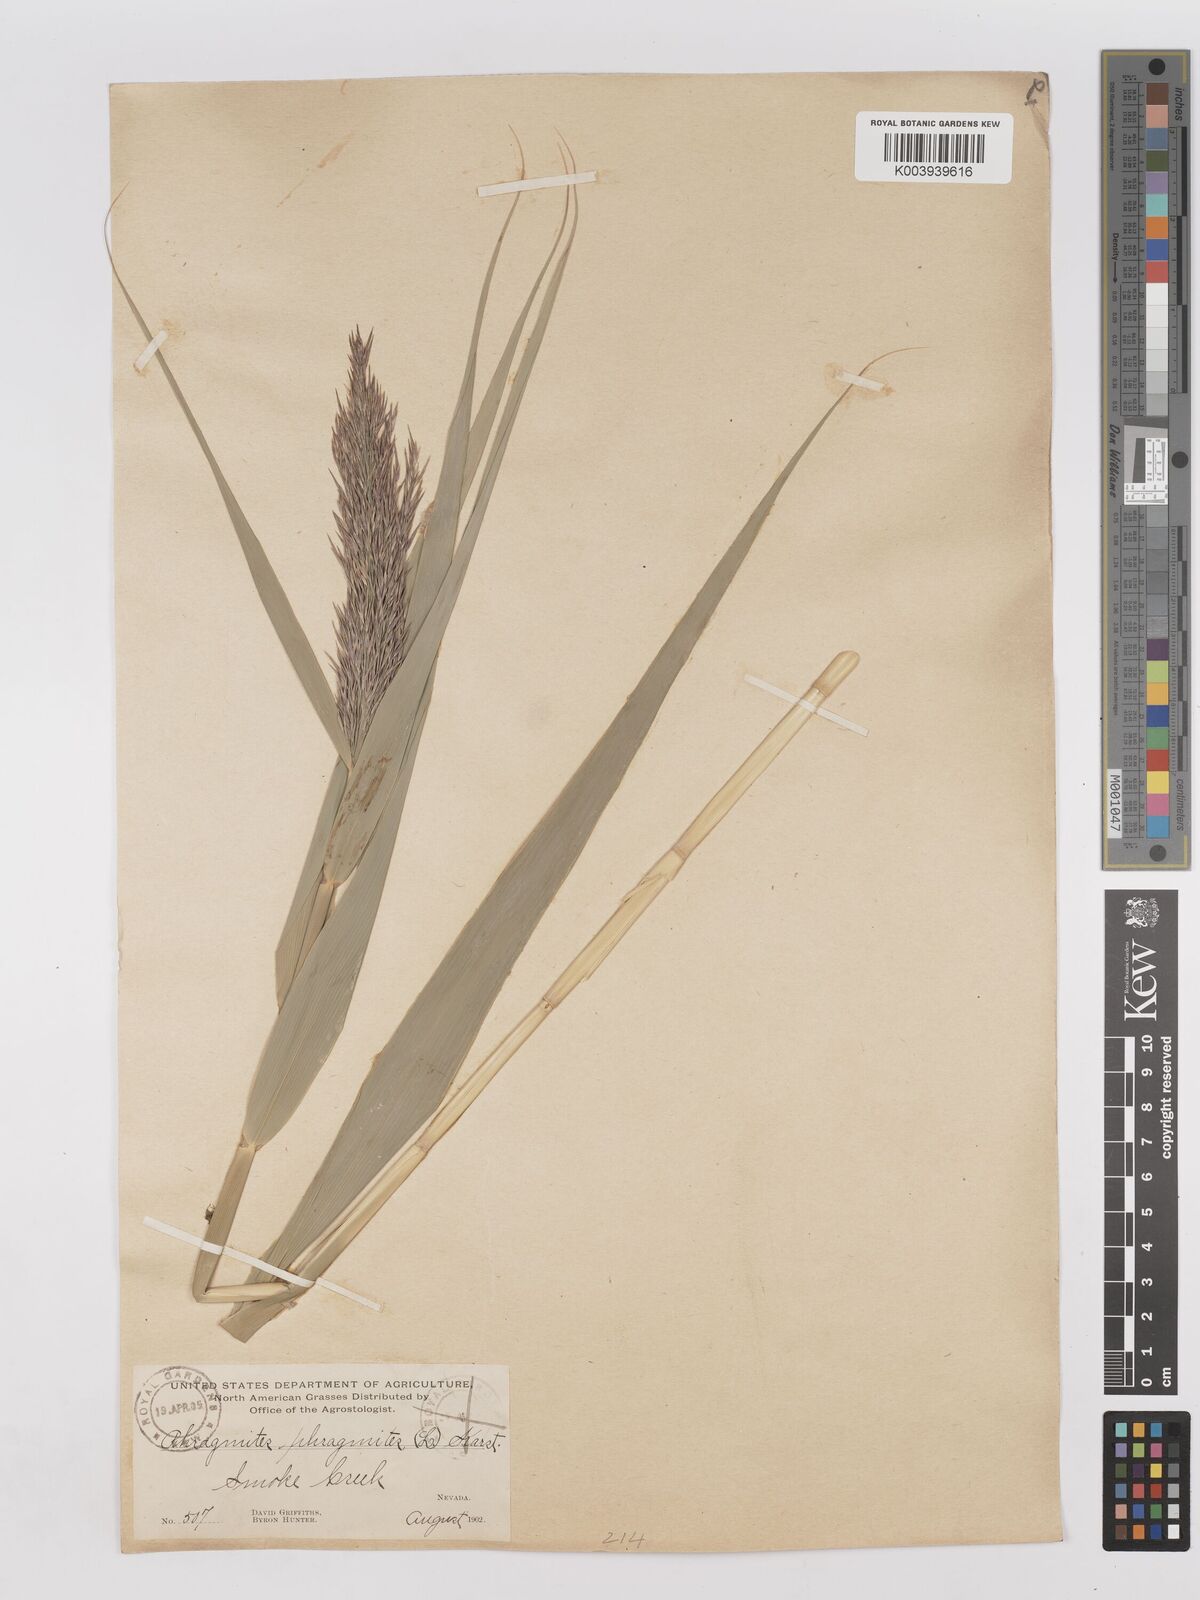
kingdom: Plantae
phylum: Tracheophyta
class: Liliopsida
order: Poales
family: Poaceae
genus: Phragmites
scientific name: Phragmites australis
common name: Common reed
